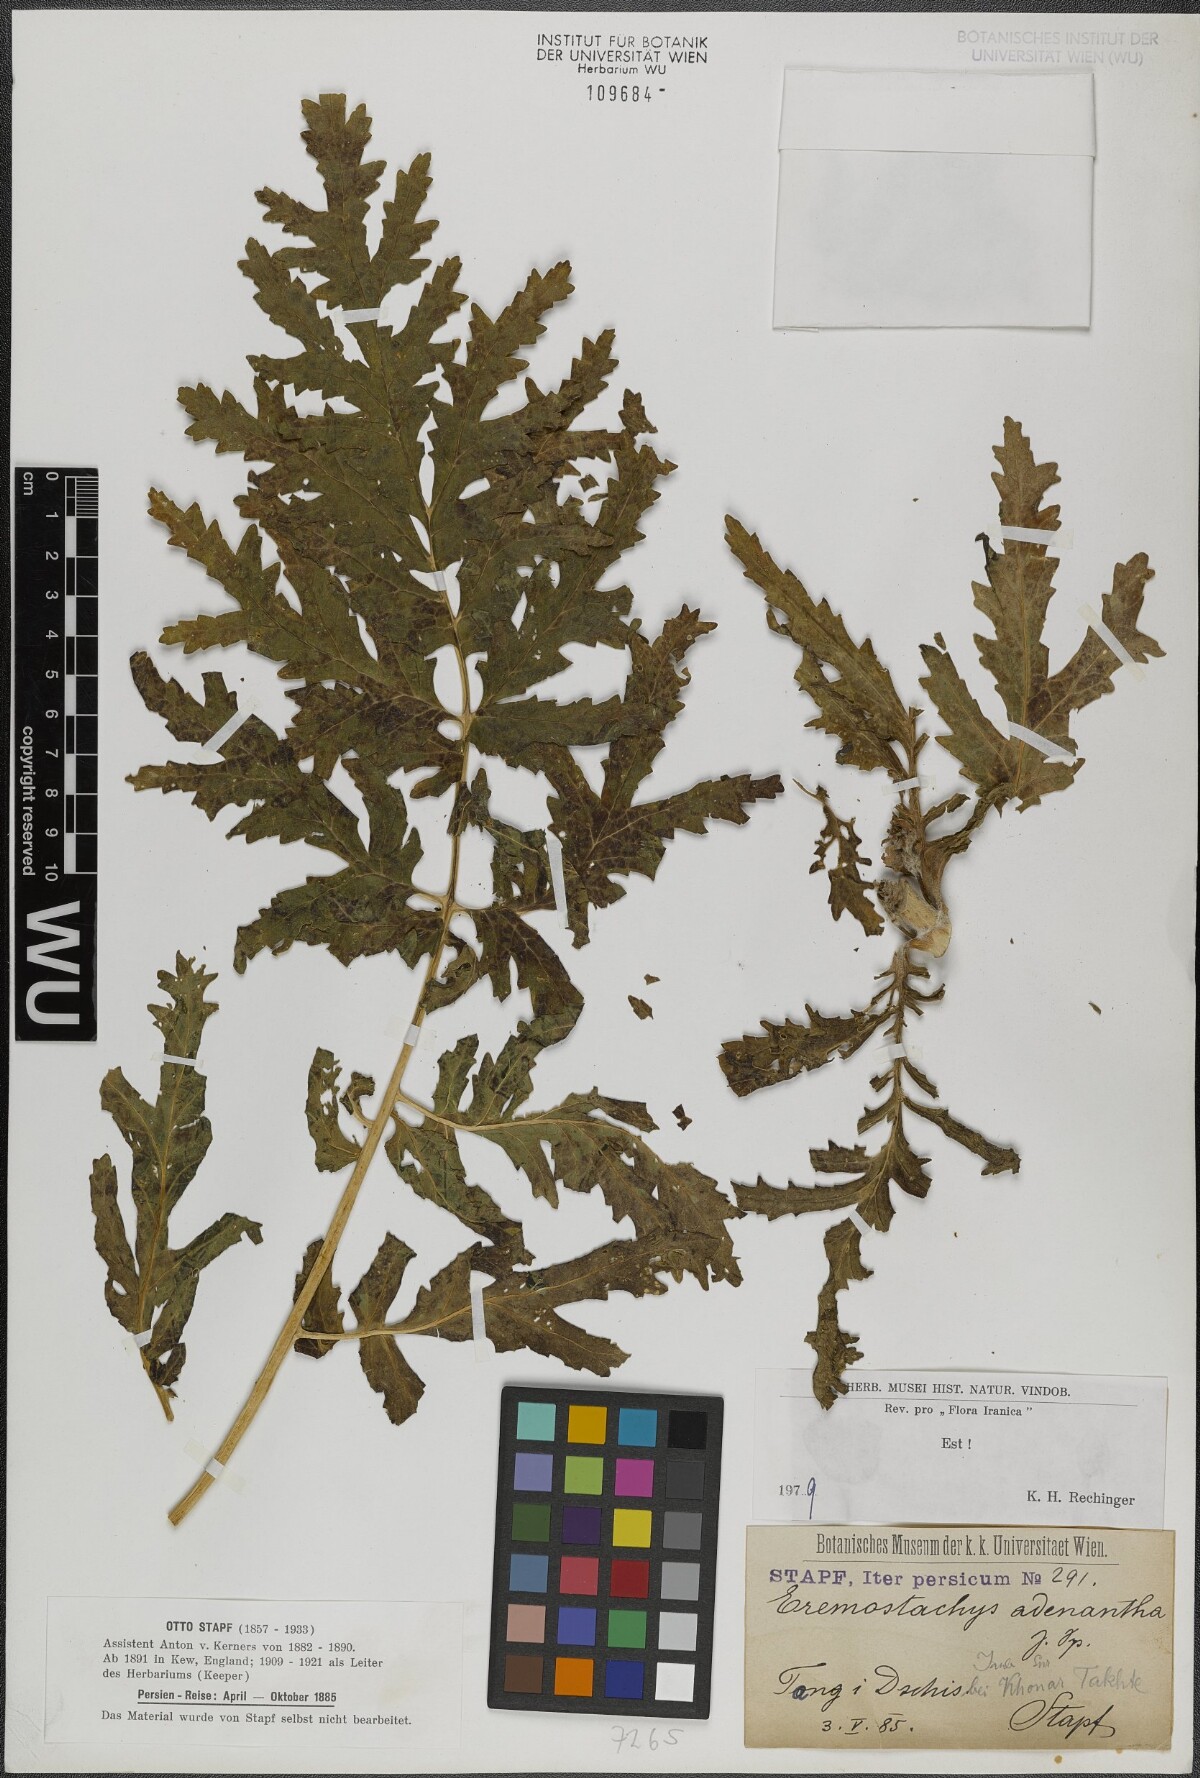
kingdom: Plantae
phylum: Tracheophyta
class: Magnoliopsida
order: Lamiales
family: Lamiaceae
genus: Phlomoides
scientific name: Phlomoides adenantha
